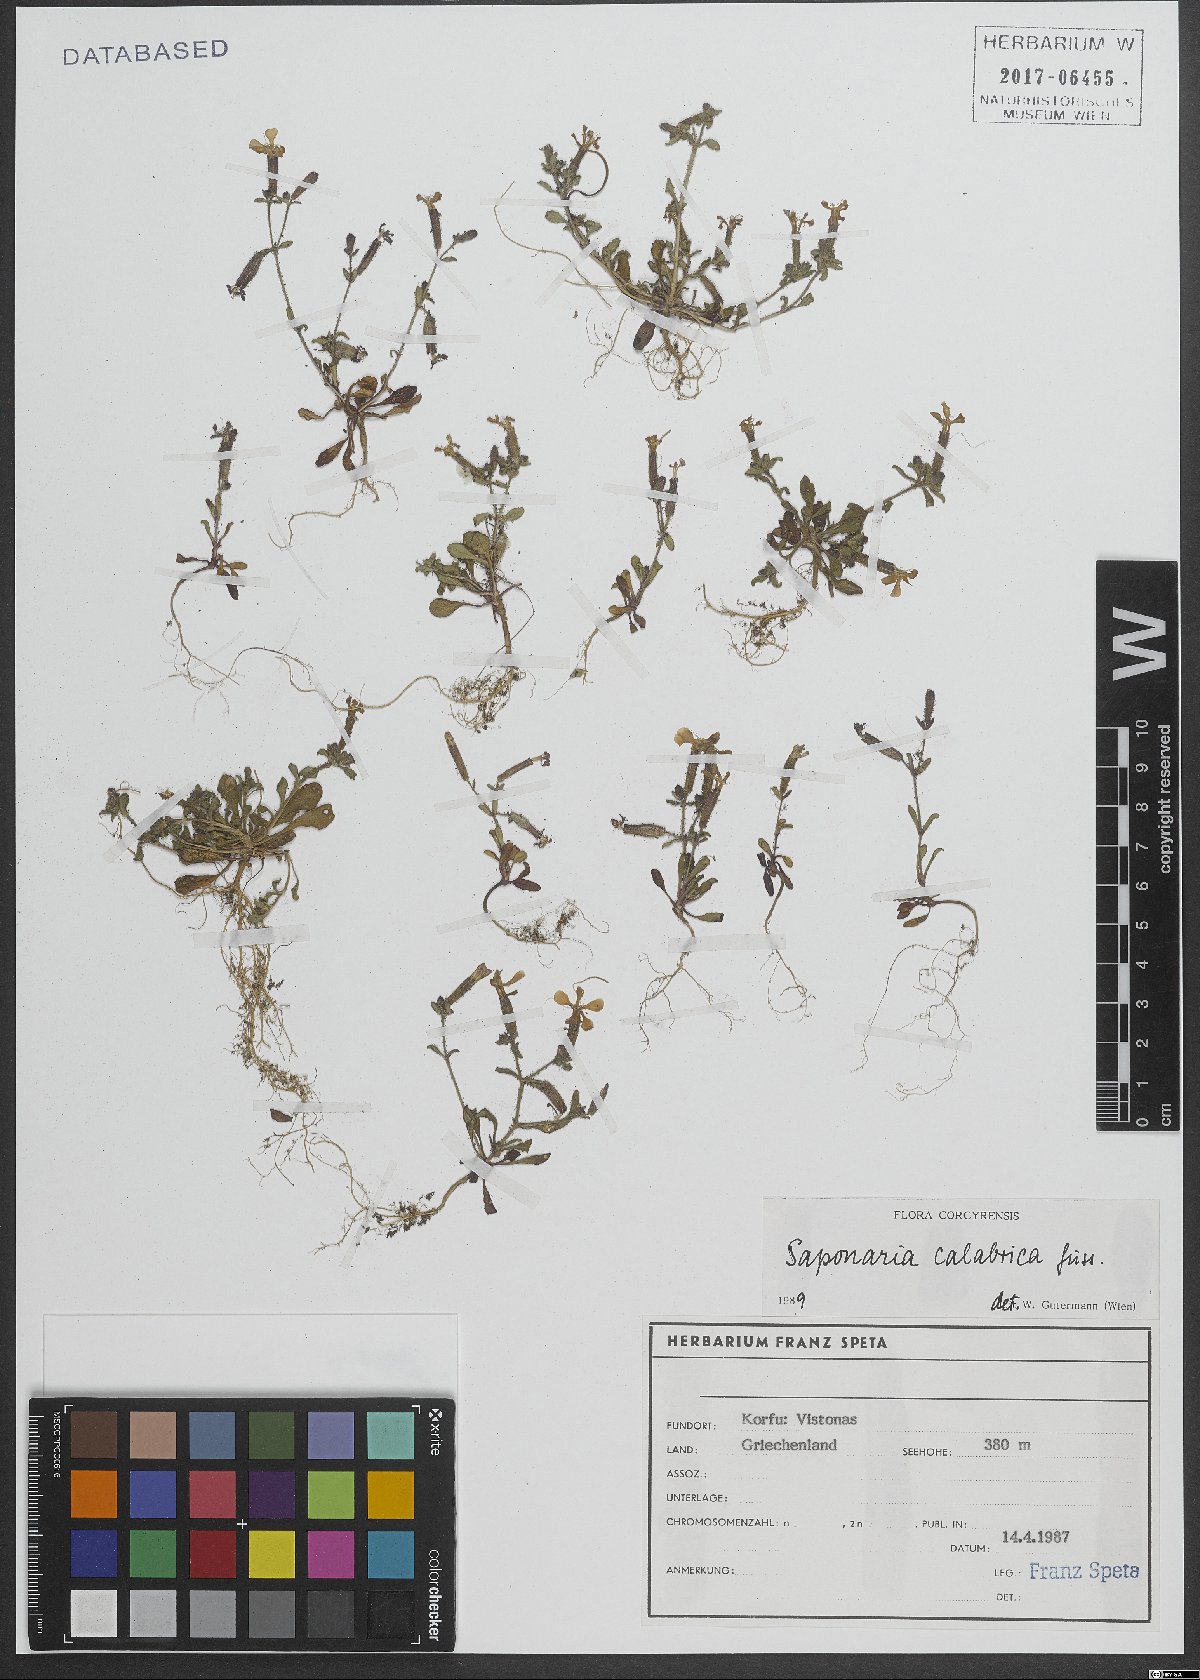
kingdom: Plantae
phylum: Tracheophyta
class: Magnoliopsida
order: Caryophyllales
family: Caryophyllaceae
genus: Saponaria
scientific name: Saponaria calabrica
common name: Adriatic soapwort
